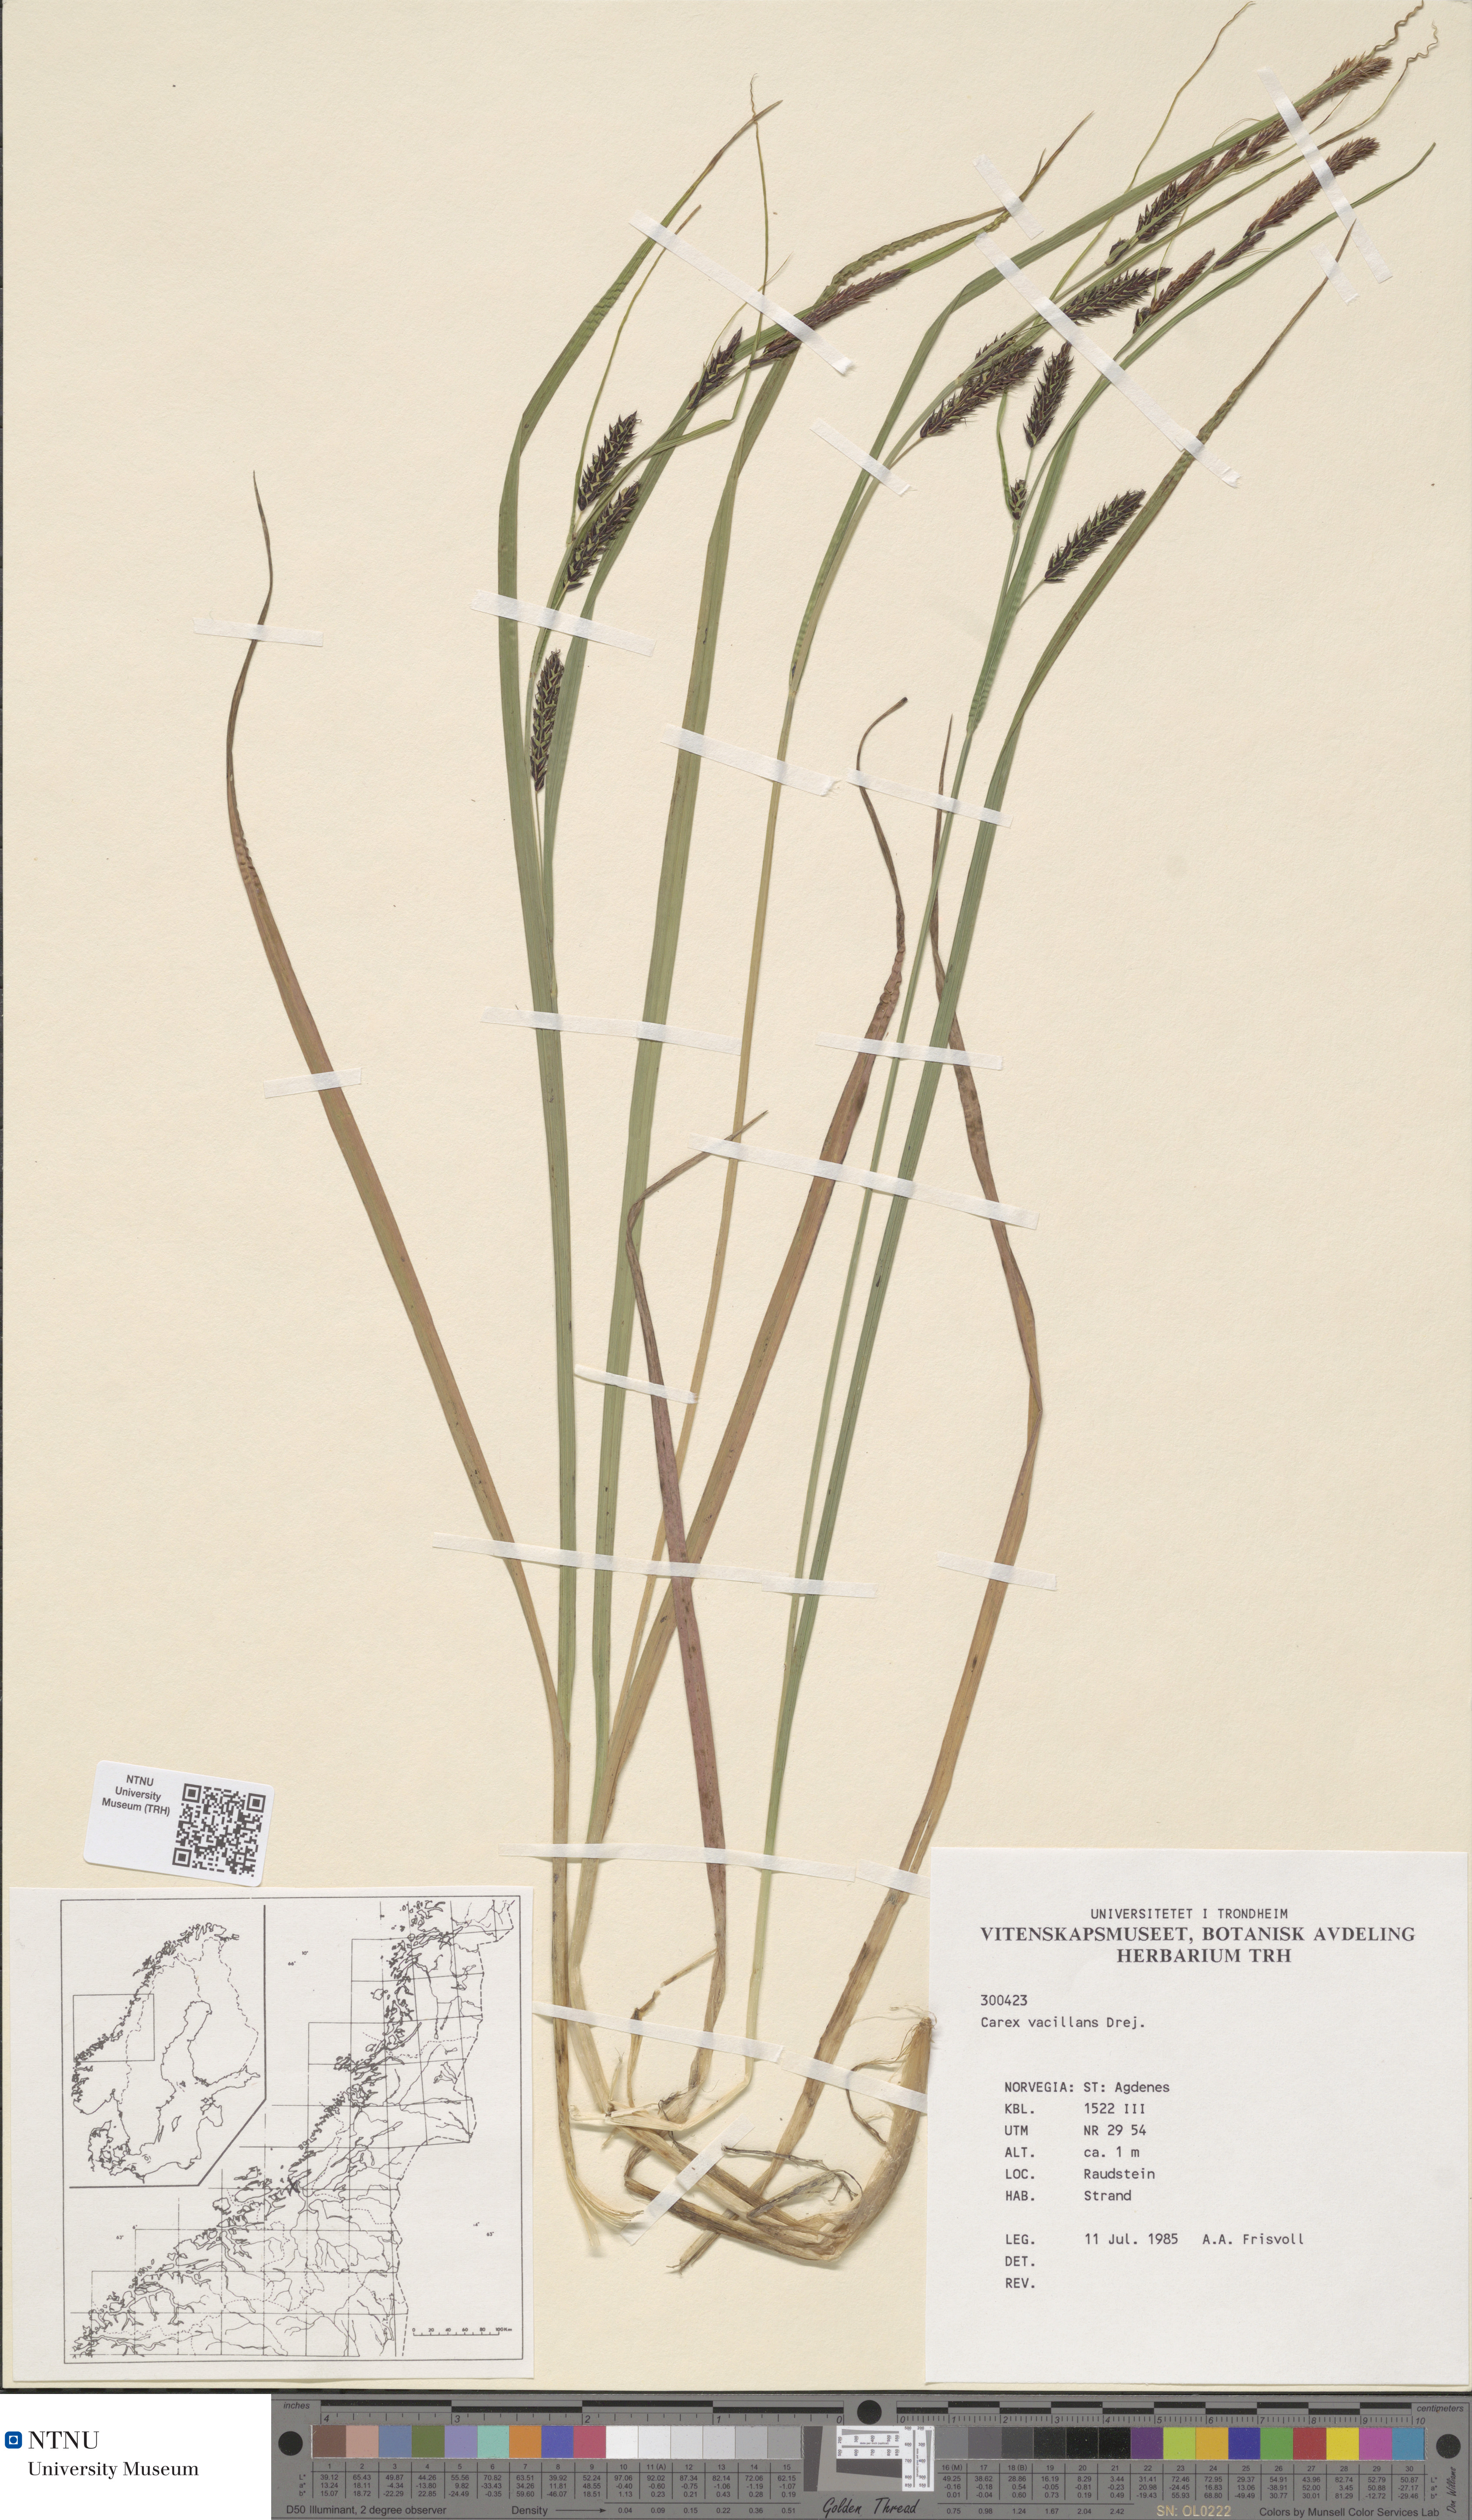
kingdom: Plantae
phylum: Tracheophyta
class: Liliopsida
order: Poales
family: Cyperaceae
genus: Carex
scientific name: Carex vacillans
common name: Sedge
